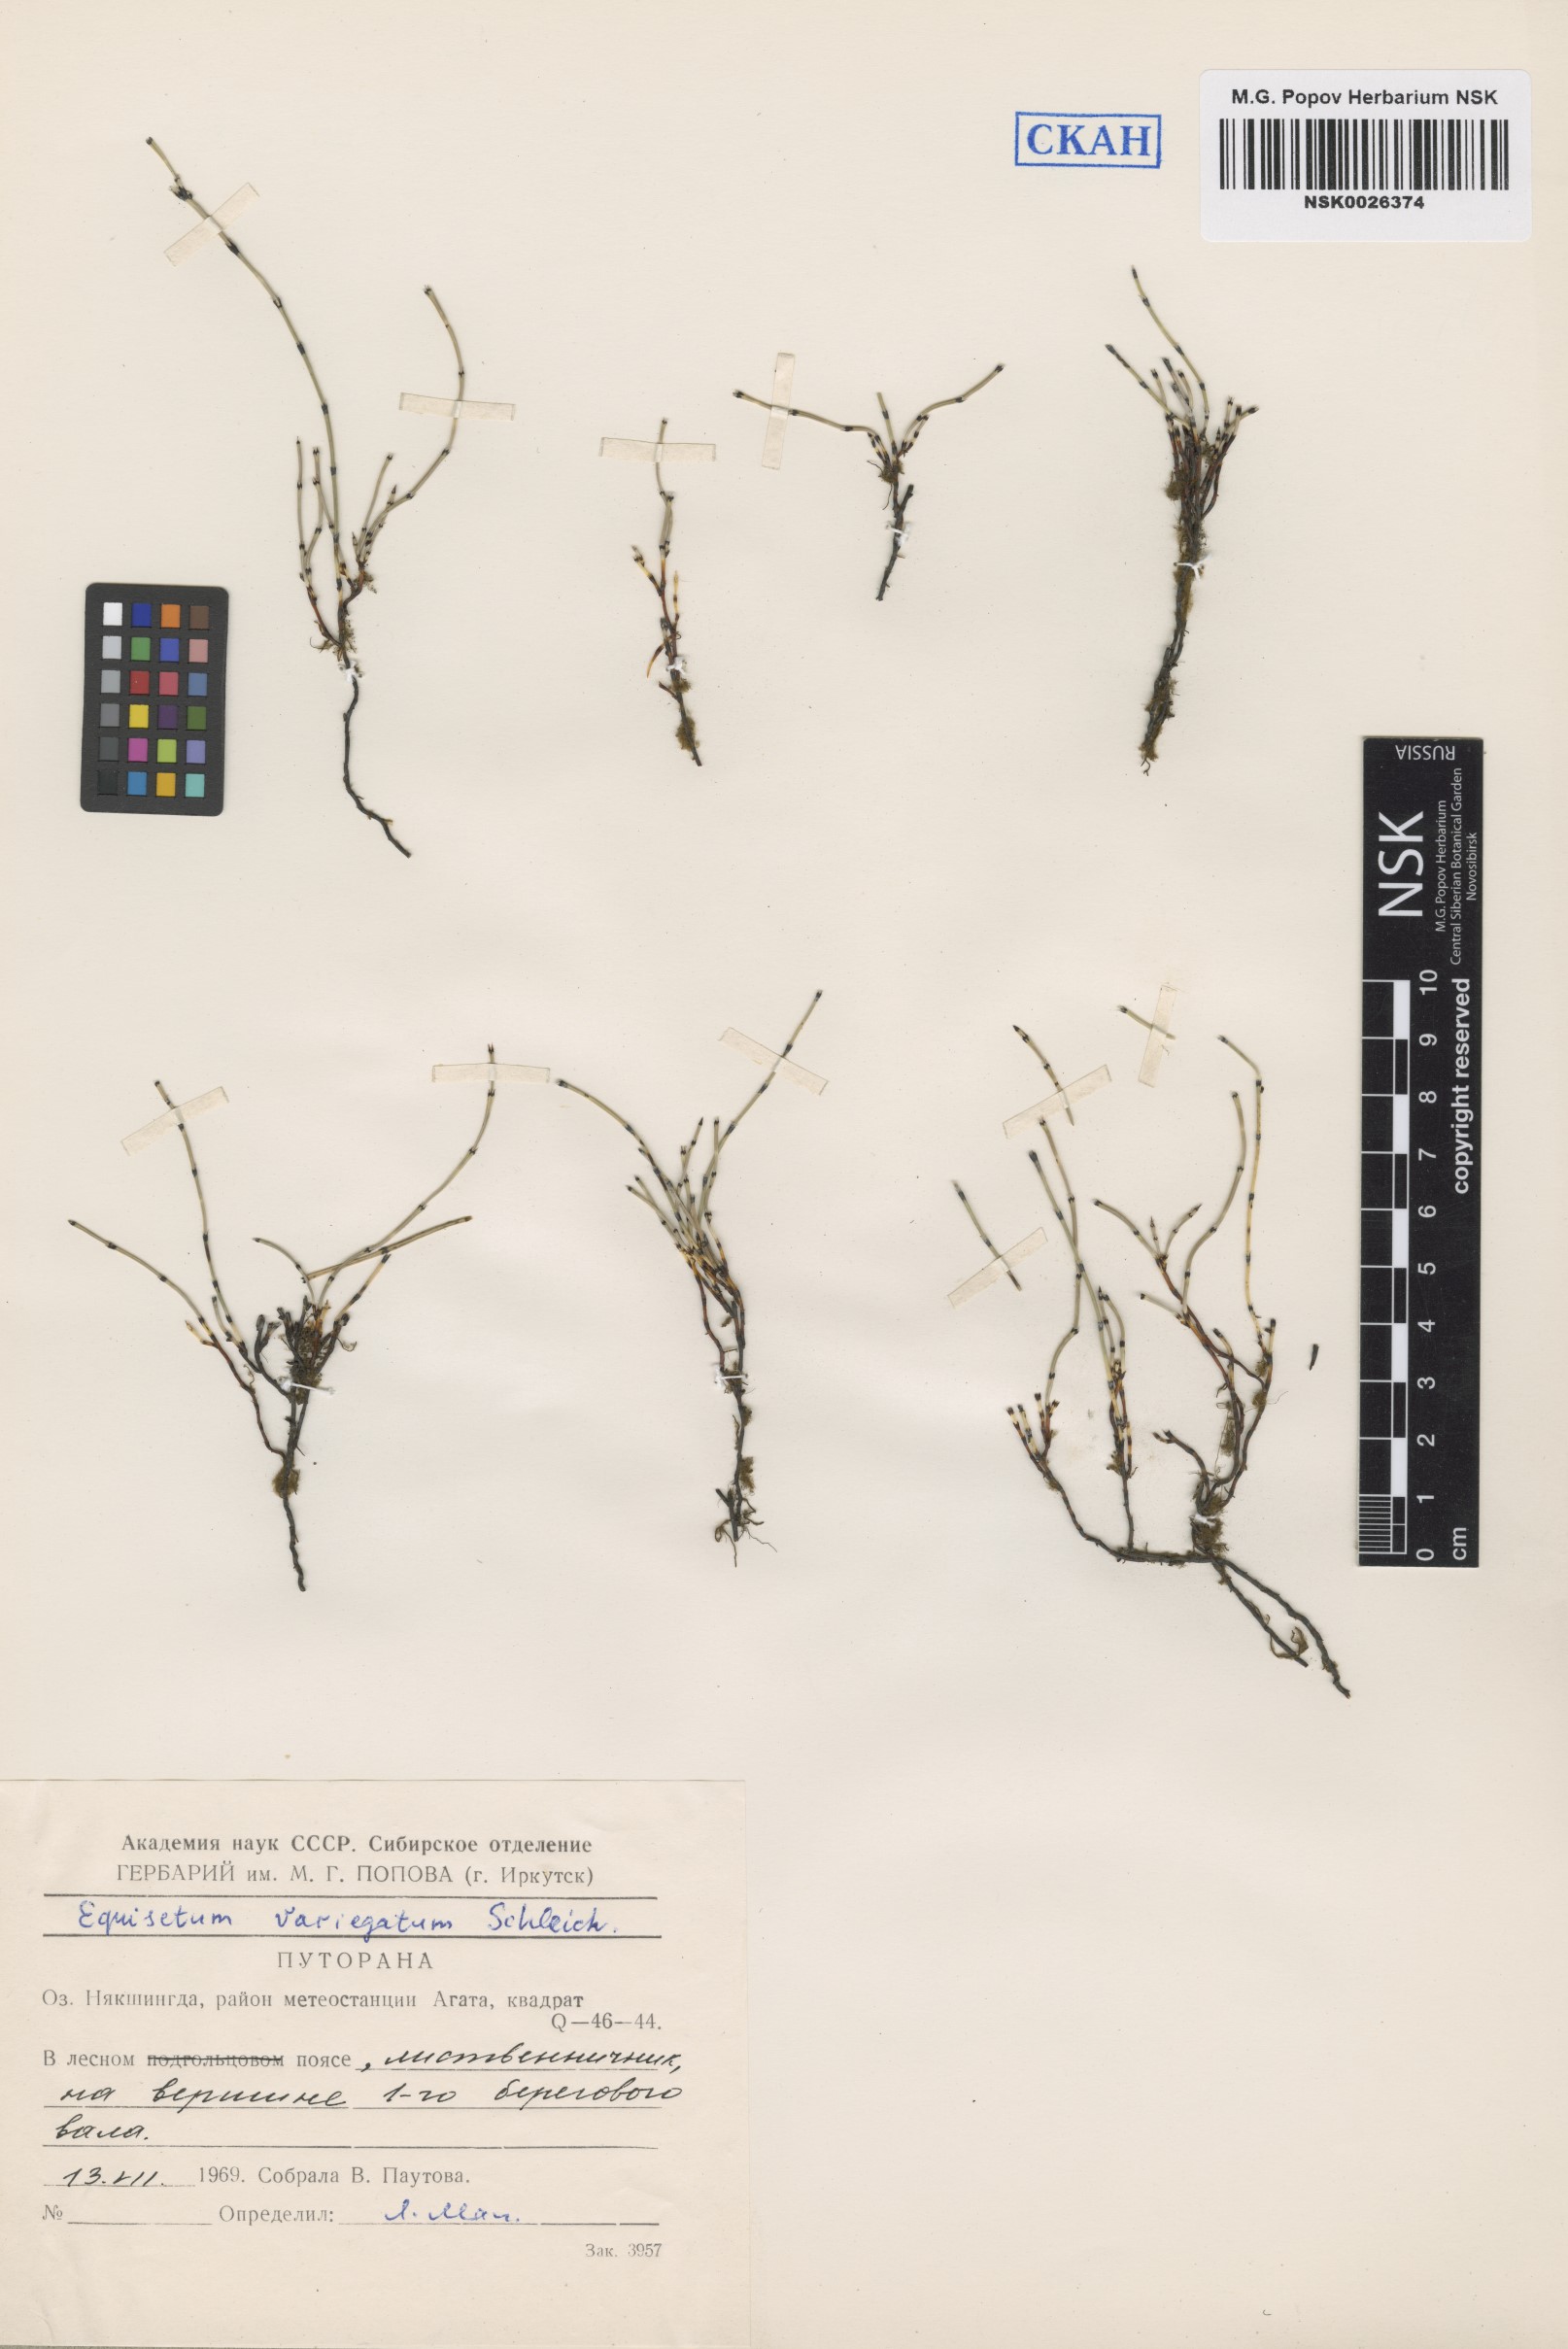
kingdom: Plantae
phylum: Tracheophyta
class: Polypodiopsida
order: Equisetales
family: Equisetaceae
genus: Equisetum
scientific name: Equisetum variegatum
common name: Variegated horsetail
